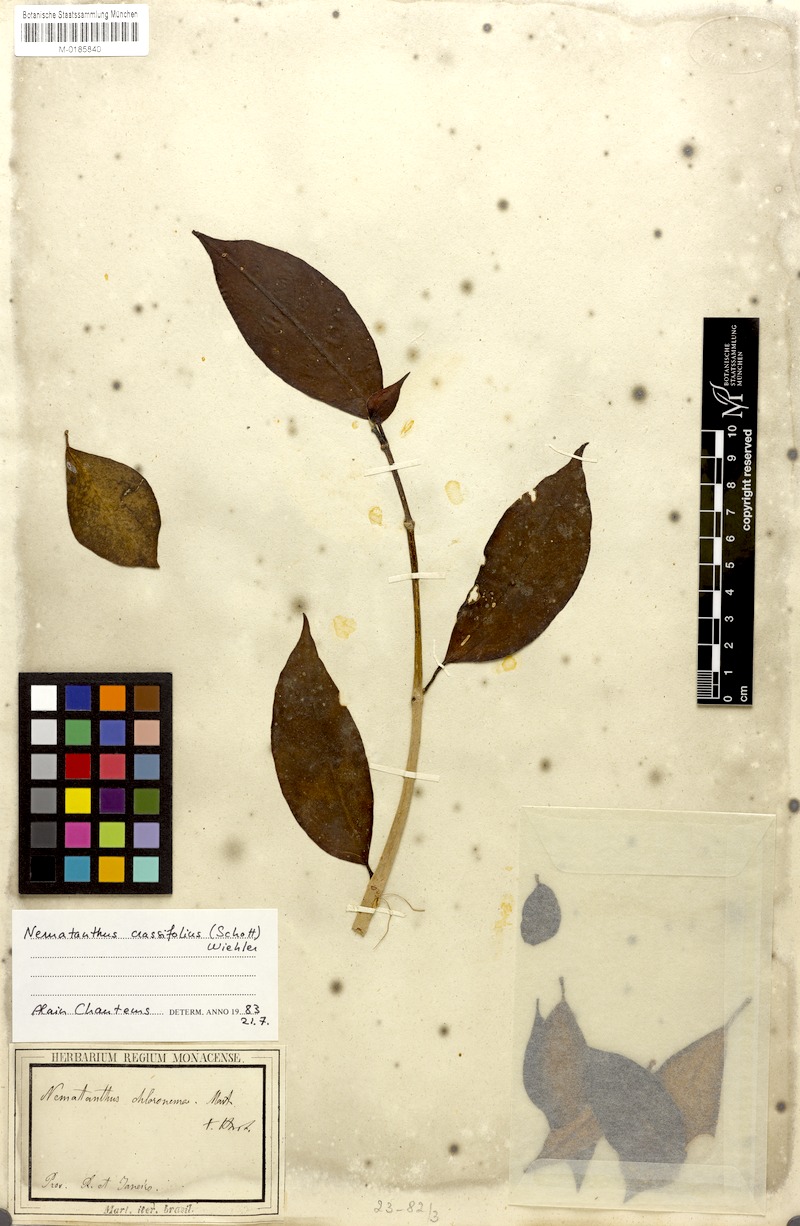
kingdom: Plantae
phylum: Tracheophyta
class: Magnoliopsida
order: Lamiales
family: Gesneriaceae
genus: Nematanthus
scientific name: Nematanthus crassifolius
